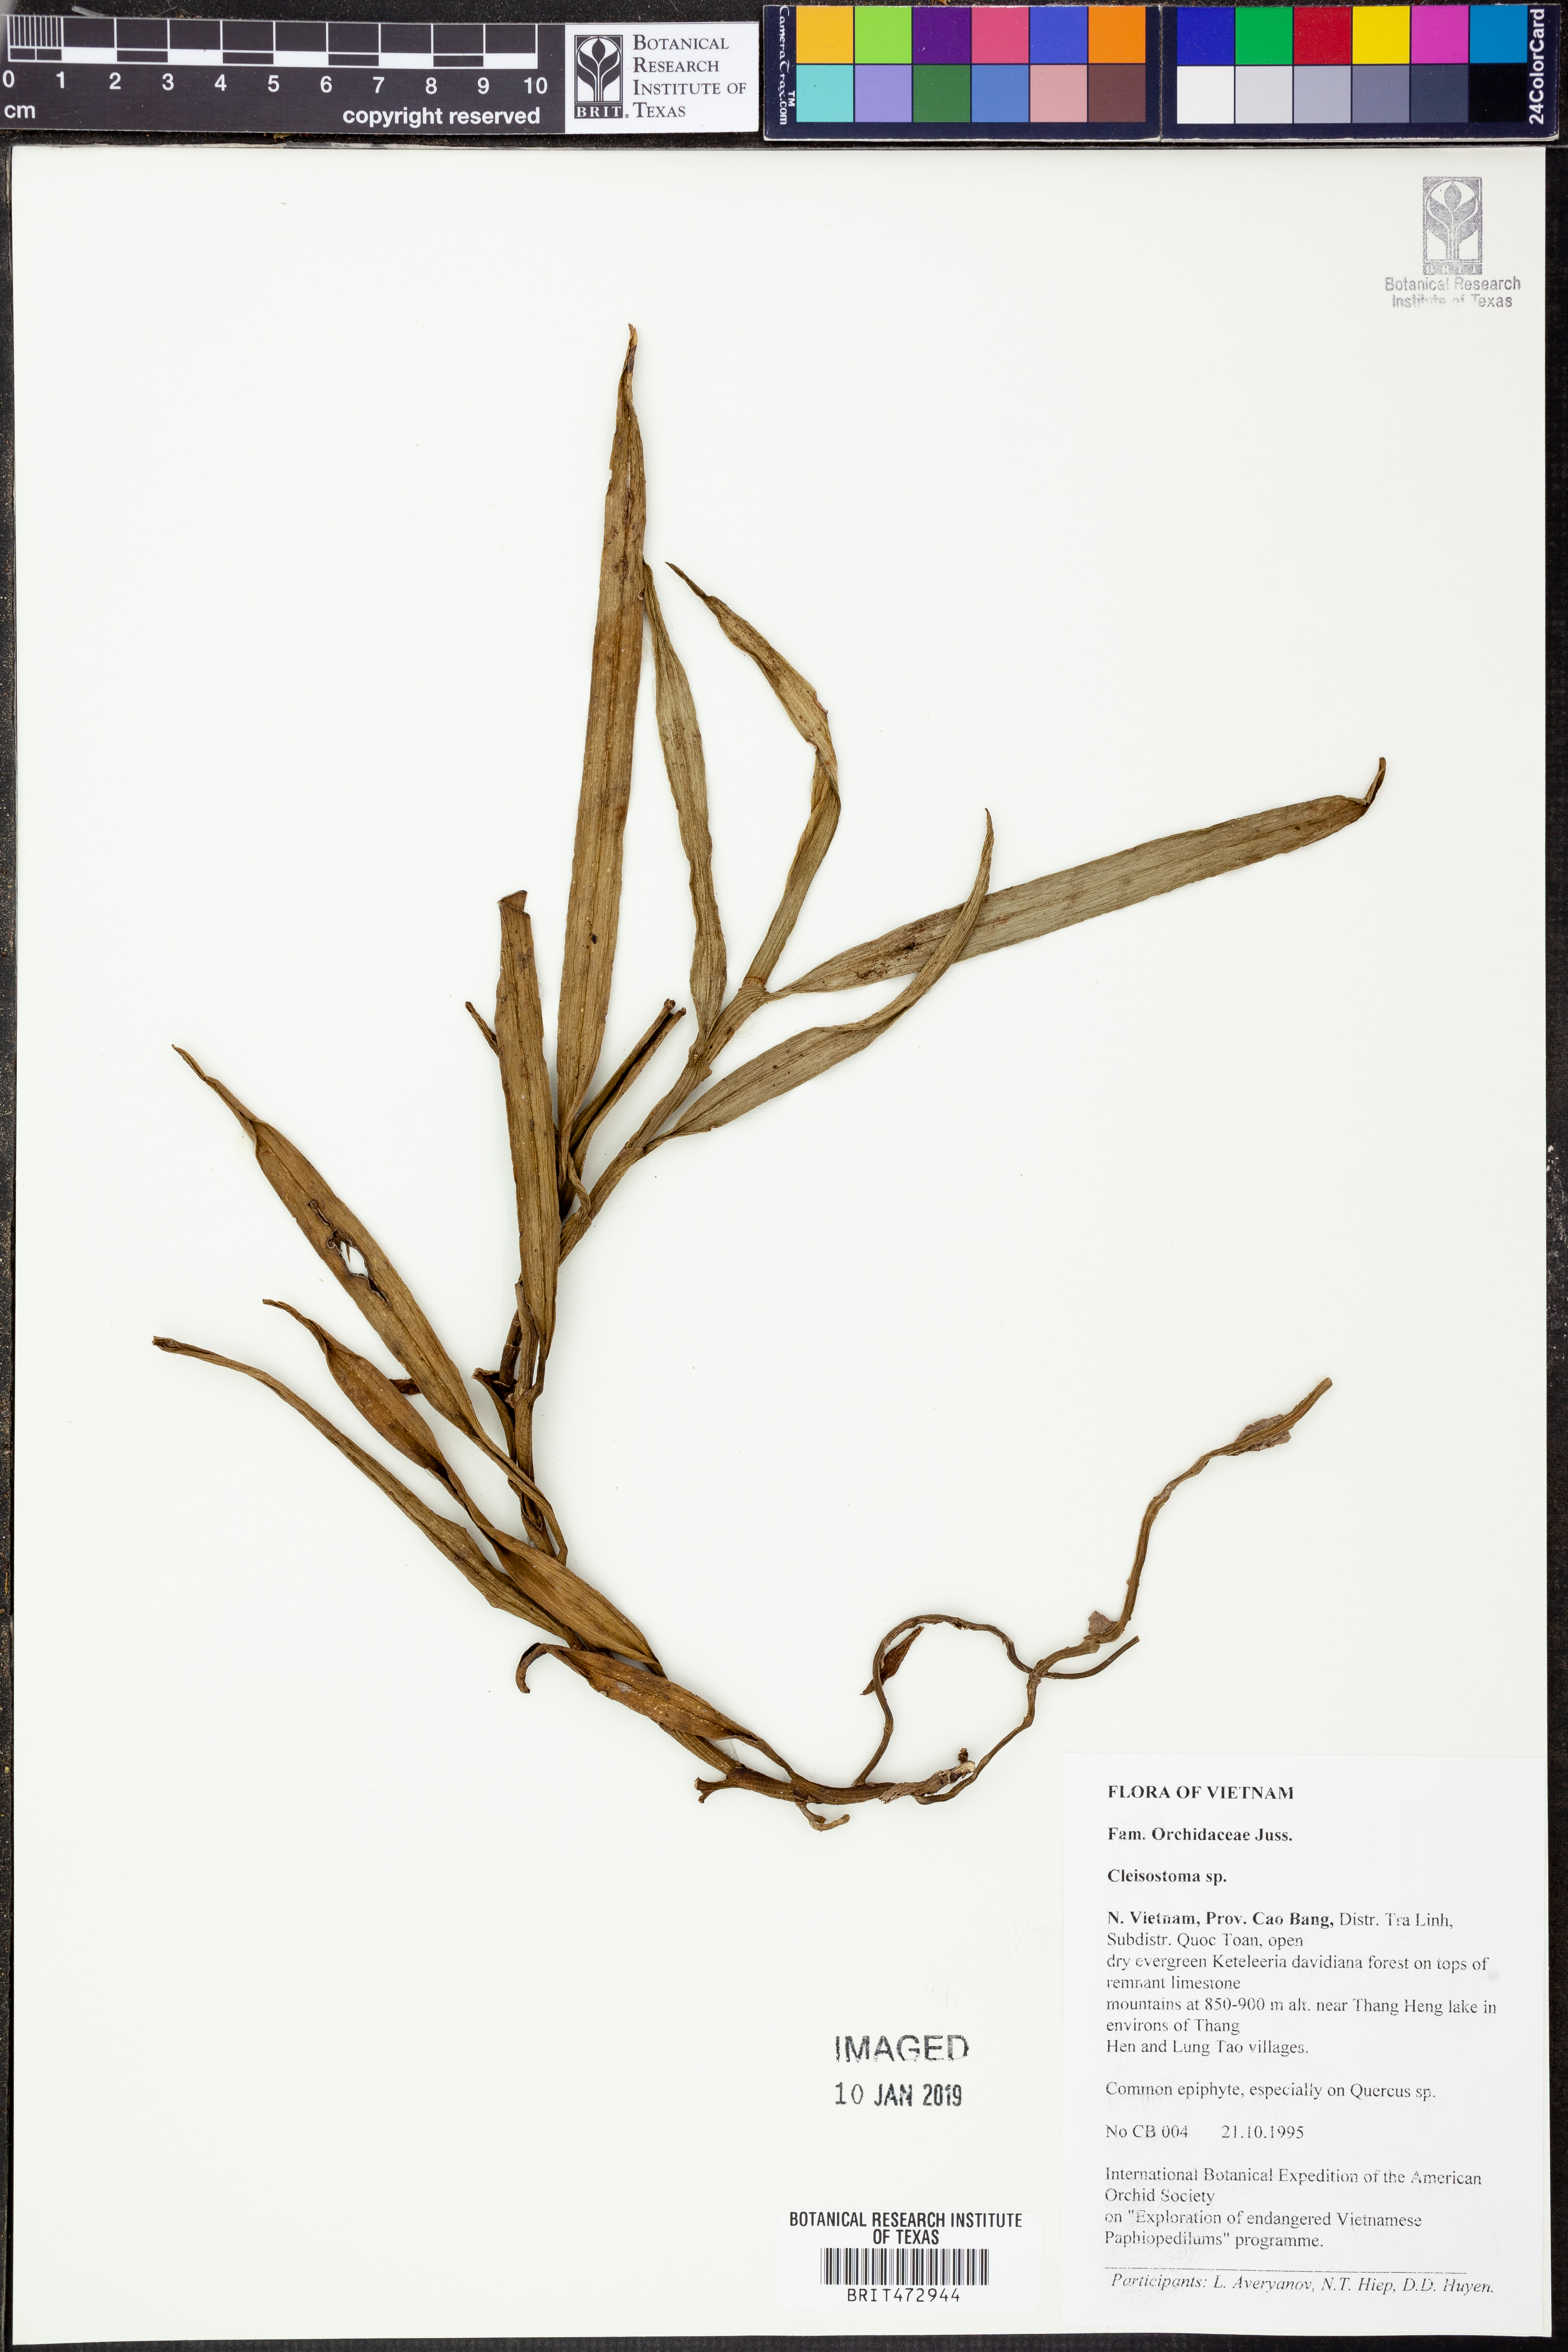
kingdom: Plantae
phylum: Tracheophyta
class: Liliopsida
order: Asparagales
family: Orchidaceae
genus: Cleisostoma
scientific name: Cleisostoma
